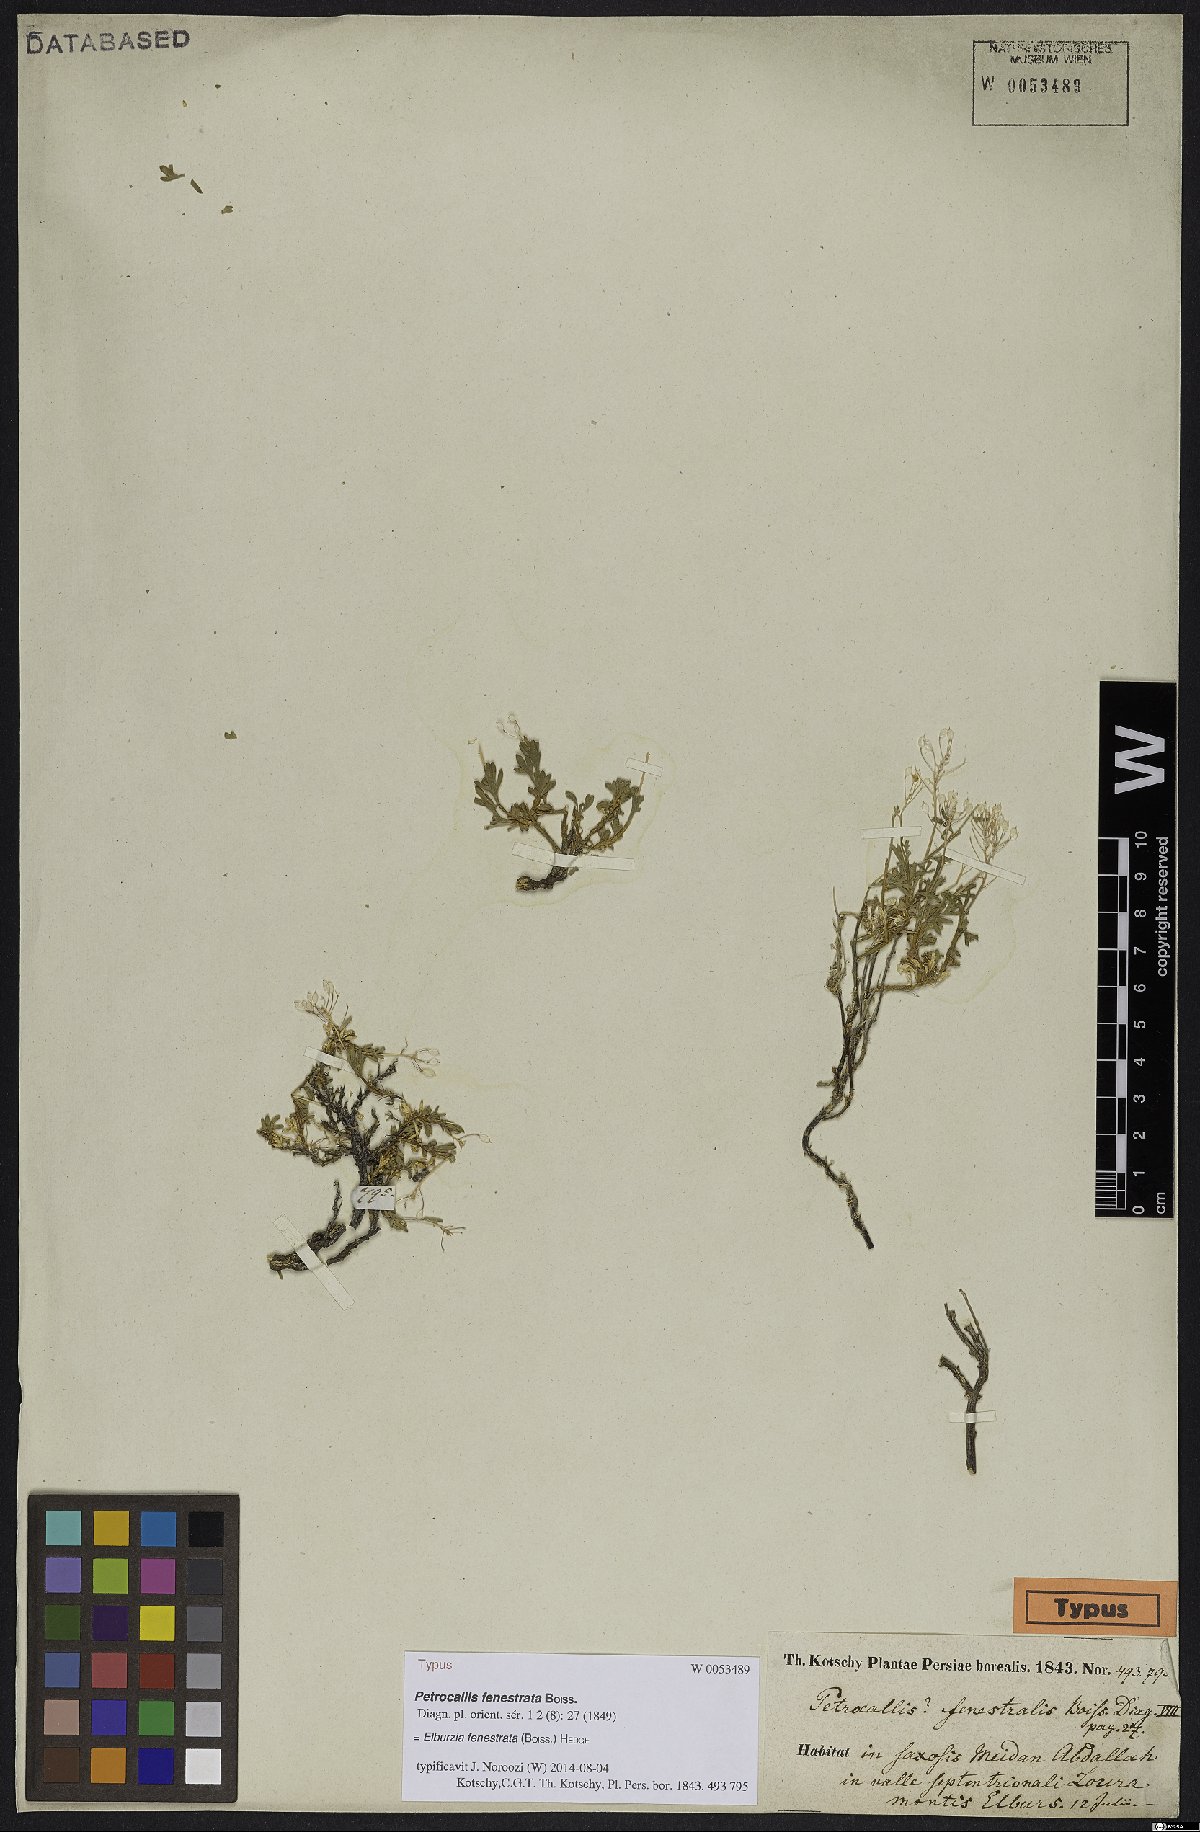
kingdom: Plantae
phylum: Tracheophyta
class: Magnoliopsida
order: Brassicales
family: Brassicaceae
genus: Didymophysa
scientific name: Didymophysa fenestrata
